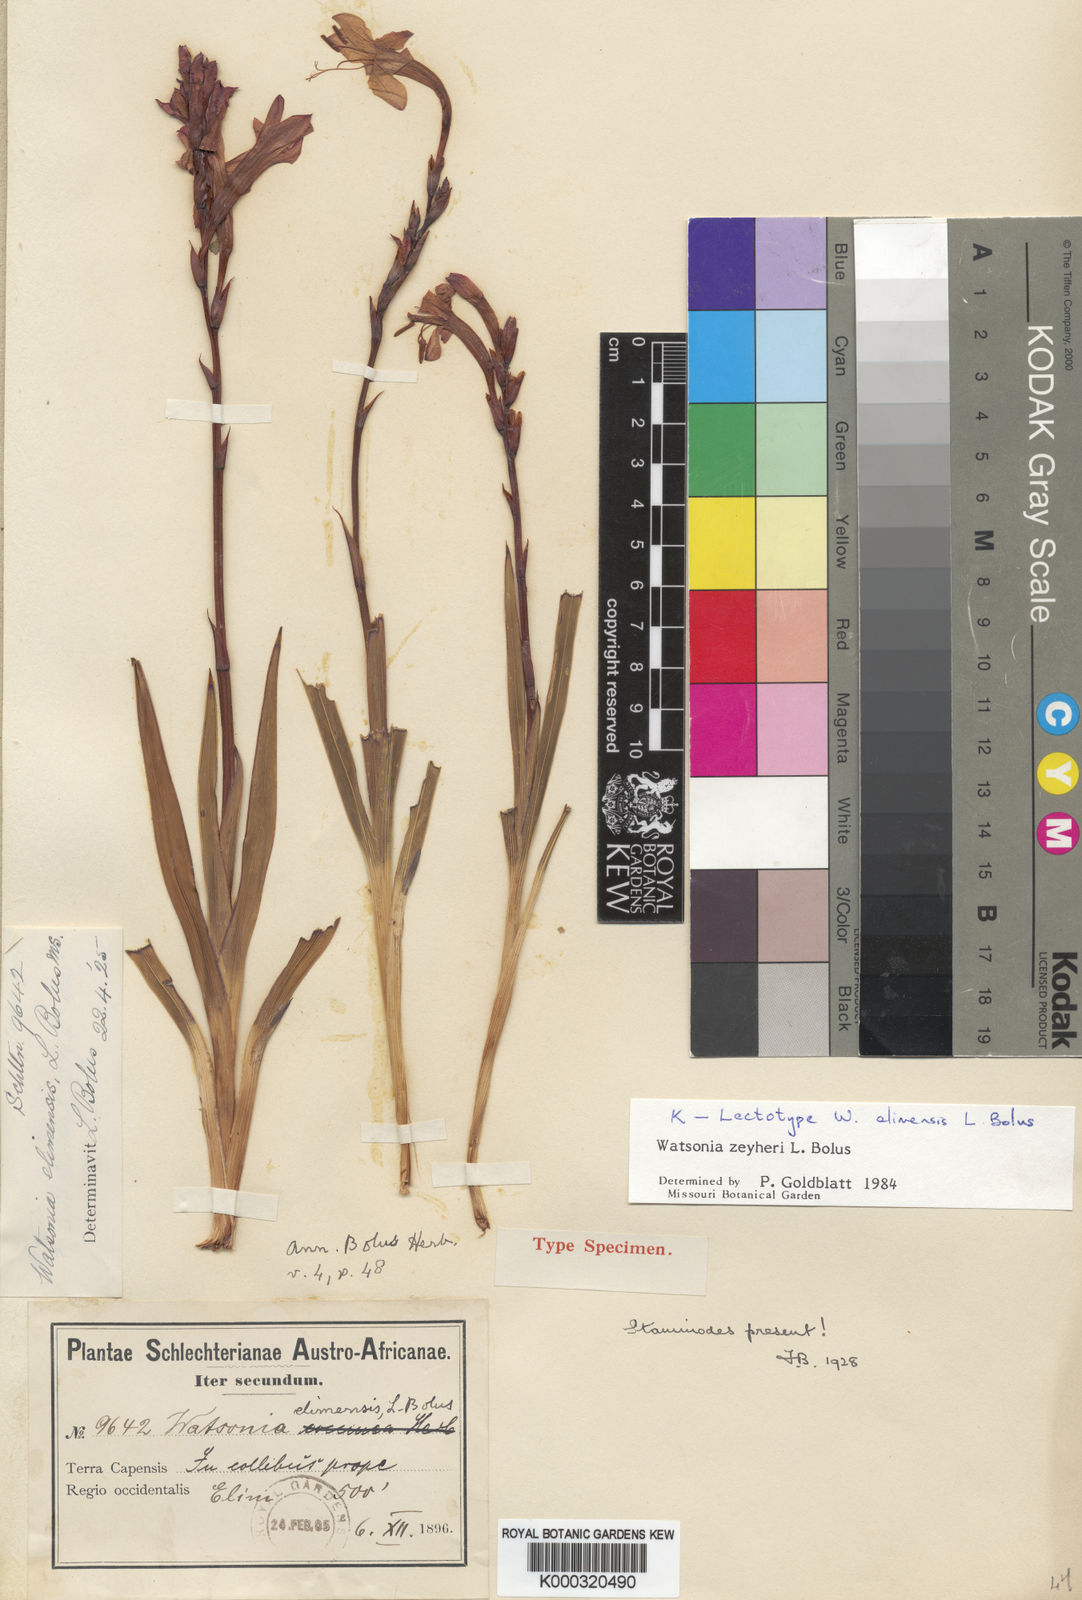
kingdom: Plantae
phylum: Tracheophyta
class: Liliopsida
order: Asparagales
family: Iridaceae
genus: Watsonia
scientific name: Watsonia zeyheri
